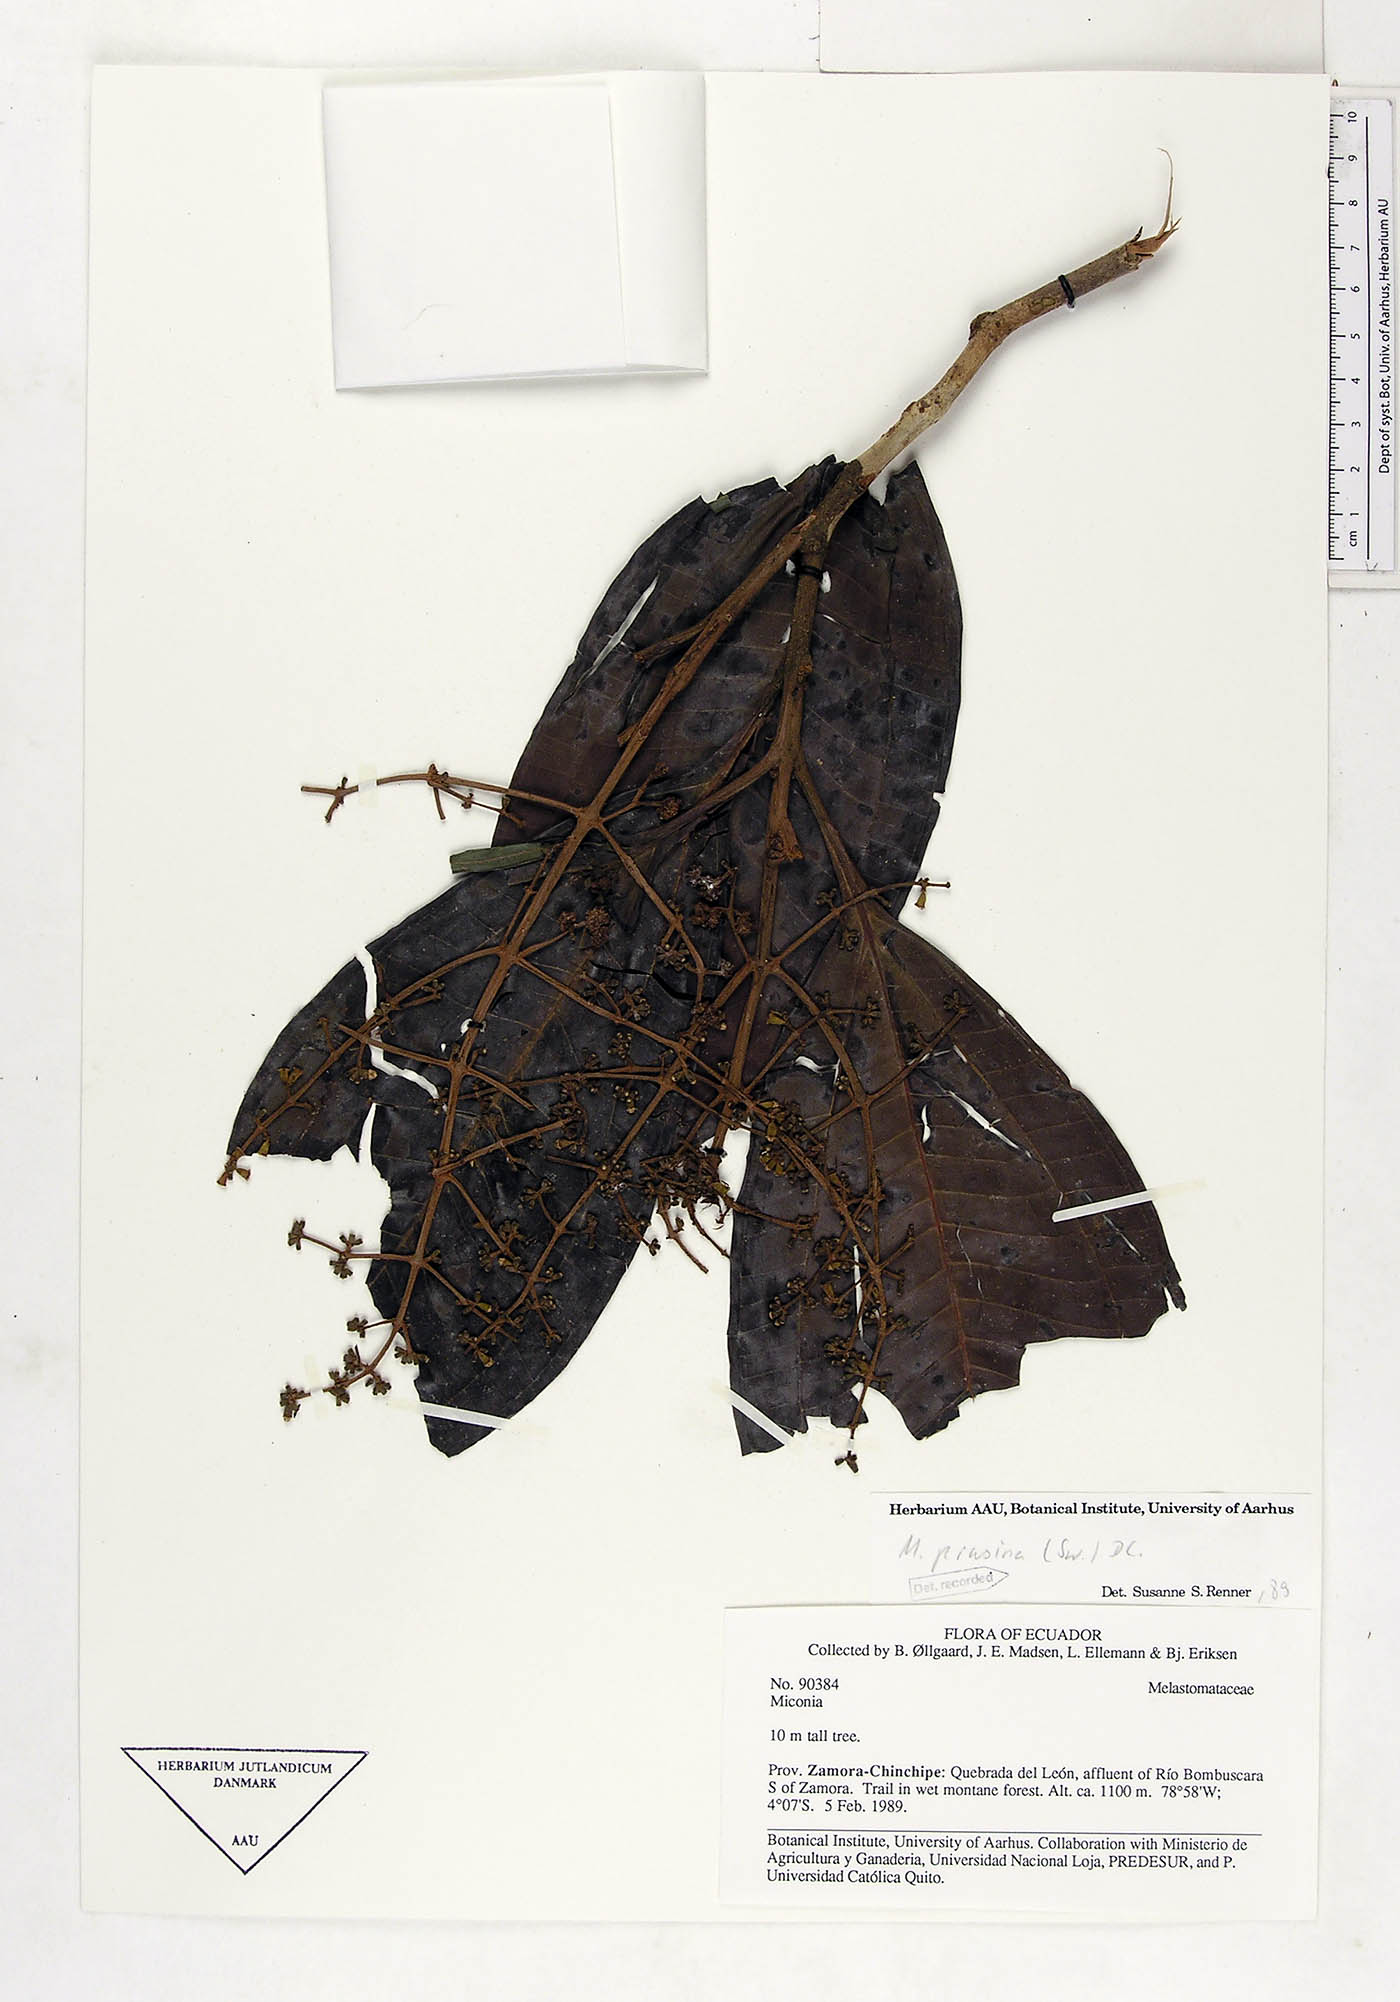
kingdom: Plantae
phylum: Tracheophyta
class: Magnoliopsida
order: Myrtales
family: Melastomataceae
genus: Miconia
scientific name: Miconia prasina
